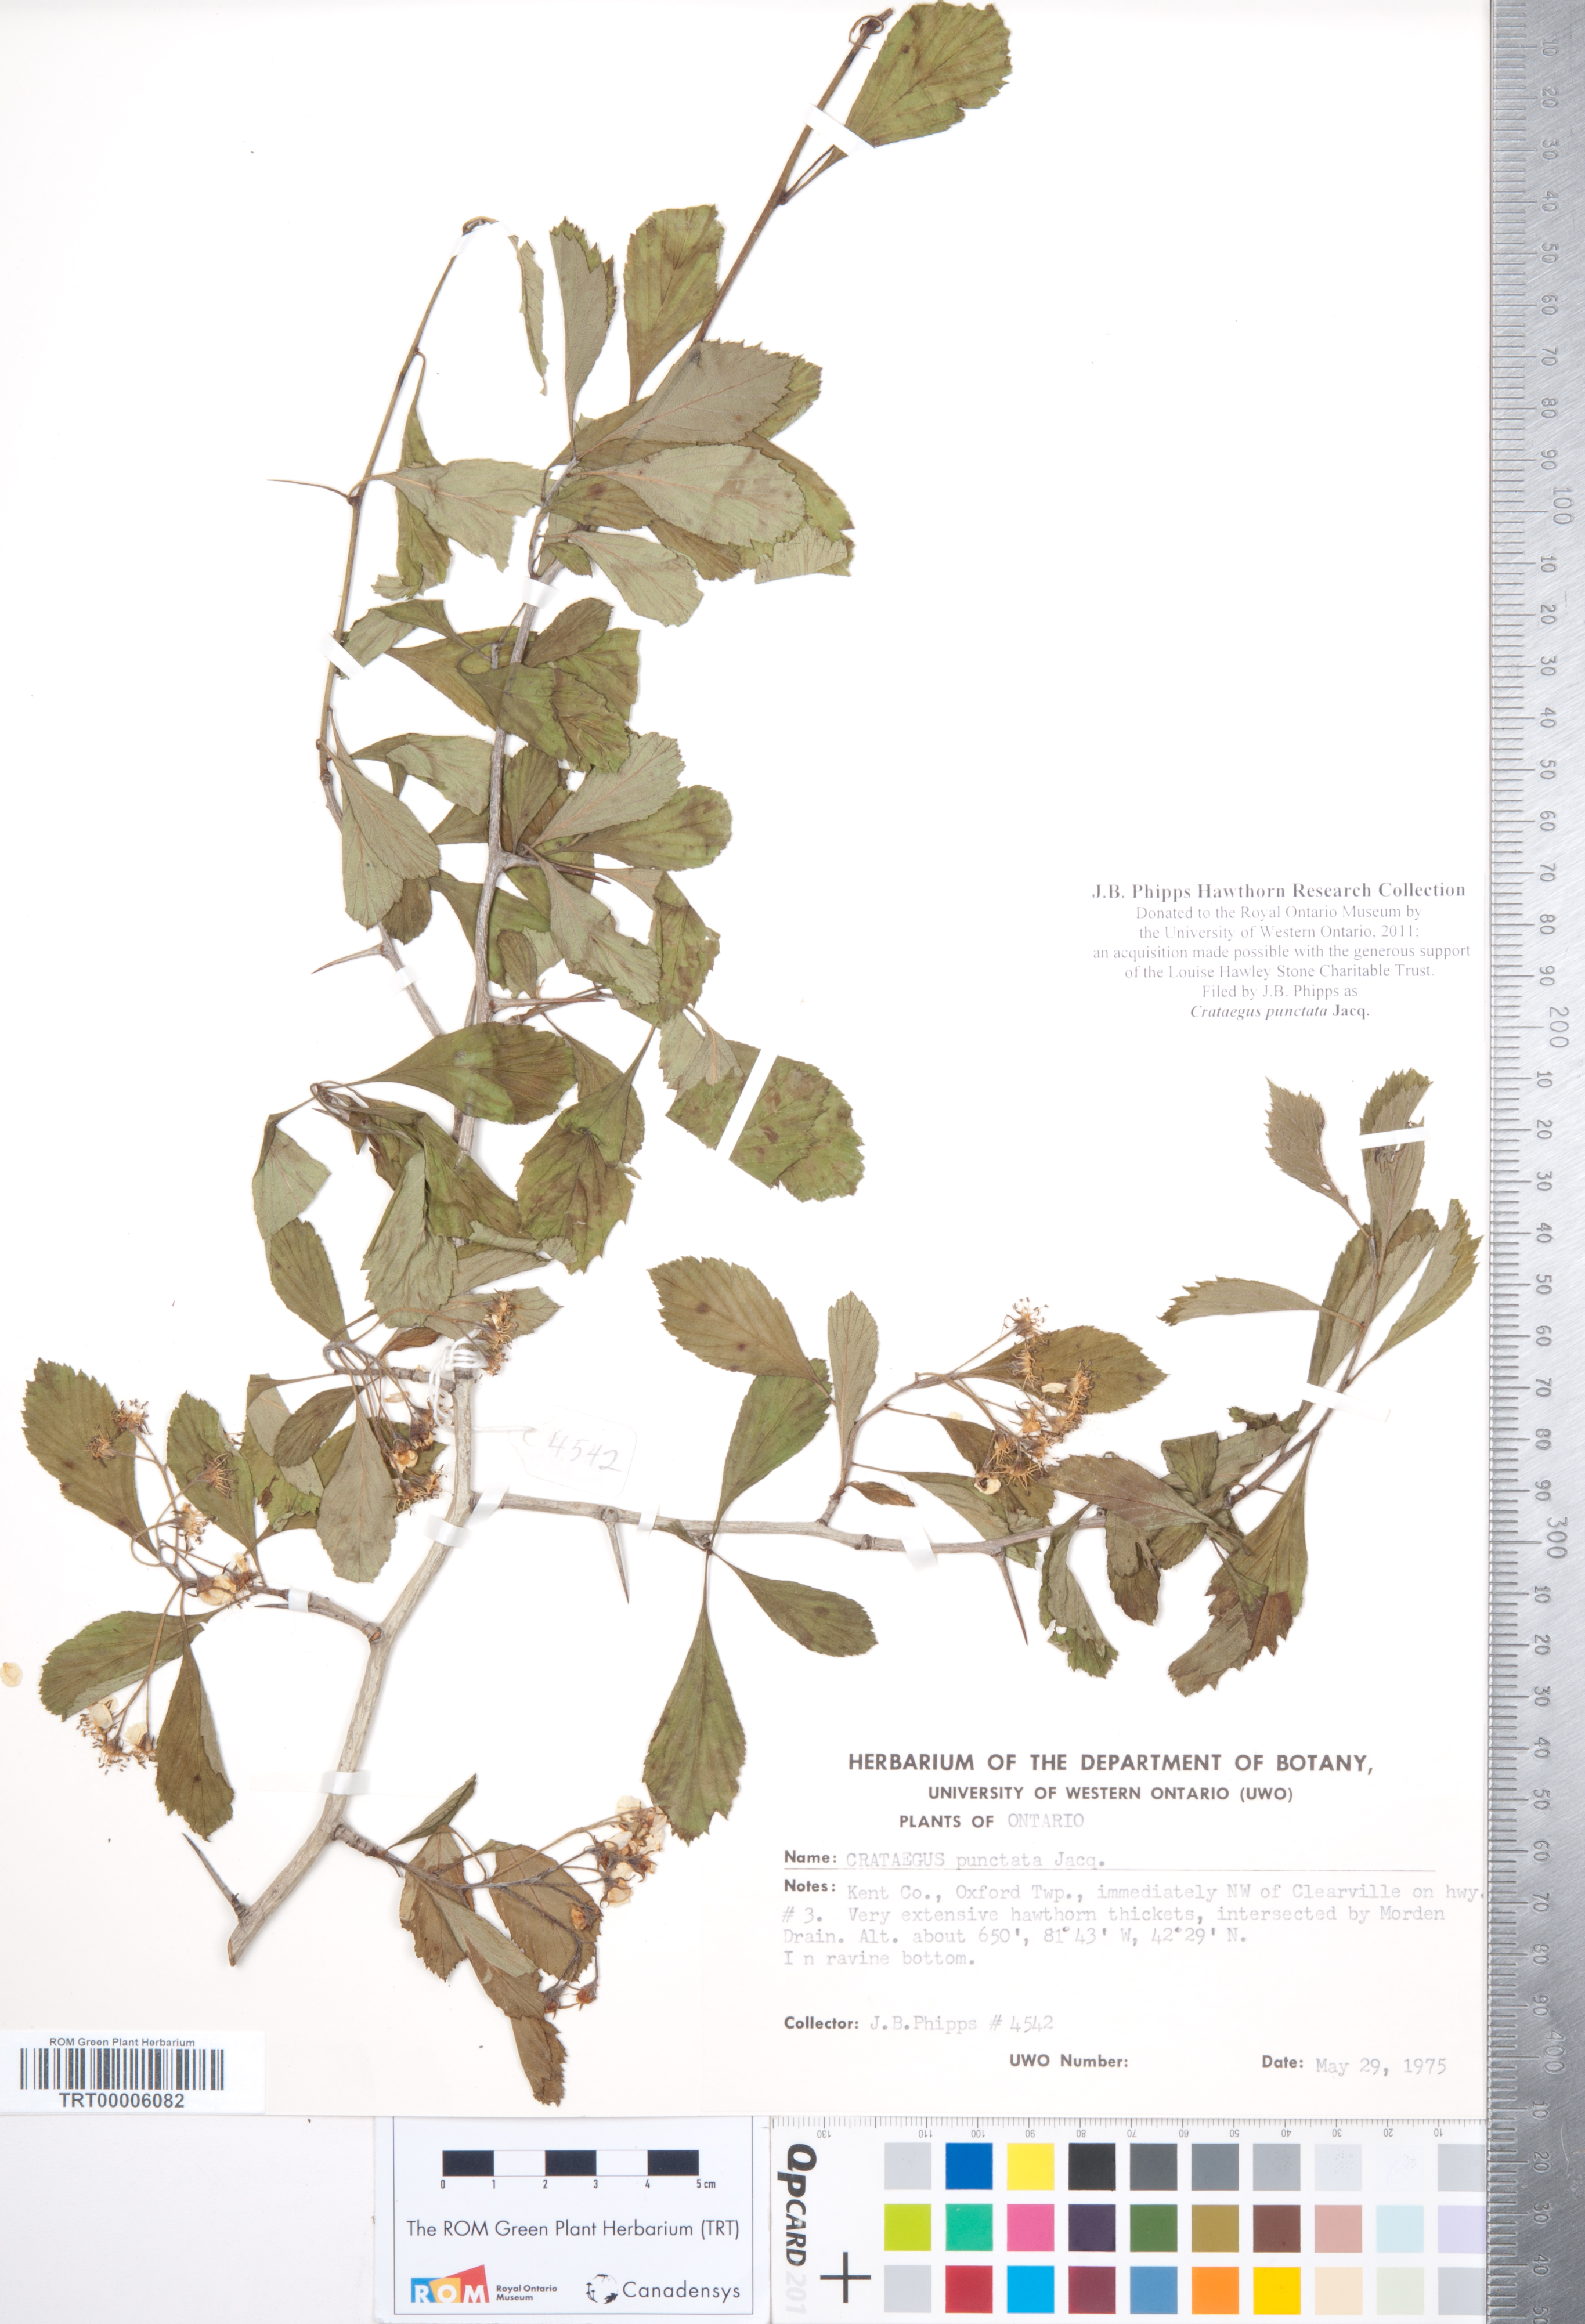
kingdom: Plantae
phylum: Tracheophyta
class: Magnoliopsida
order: Rosales
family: Rosaceae
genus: Crataegus
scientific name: Crataegus punctata
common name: Dotted hawthorn
